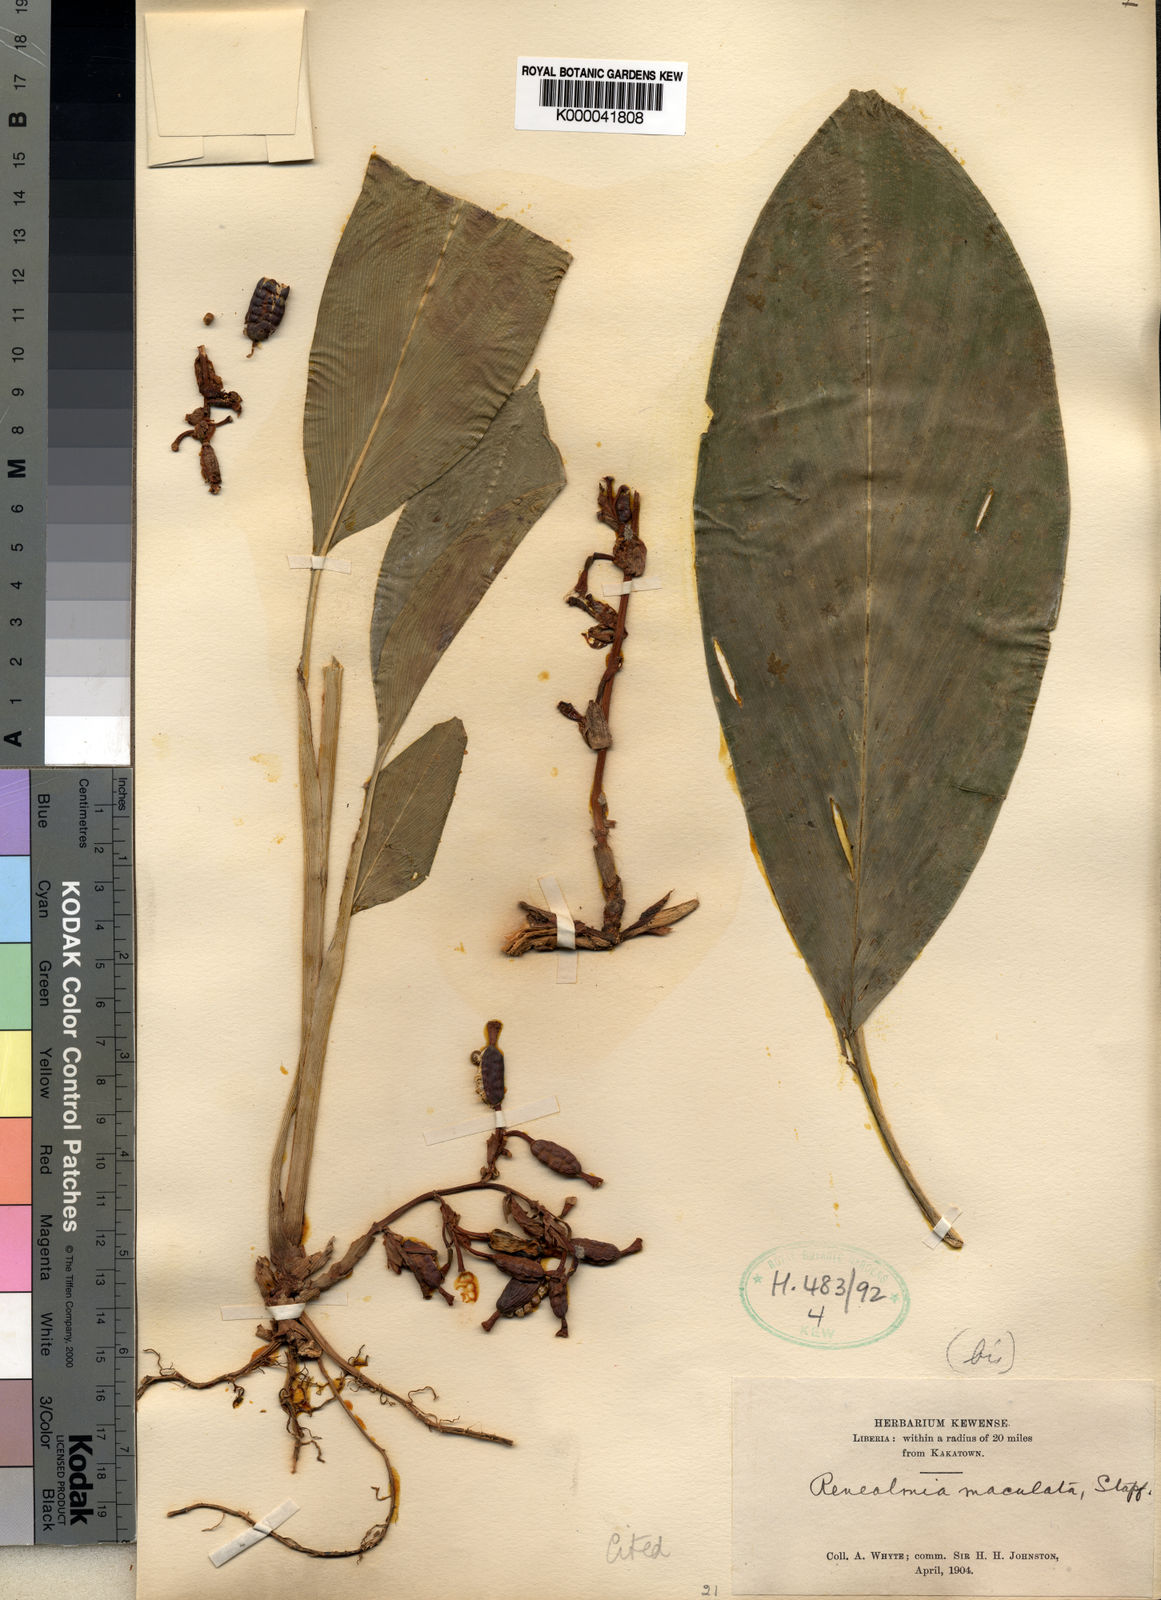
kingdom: Plantae
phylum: Tracheophyta
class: Liliopsida
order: Zingiberales
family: Zingiberaceae
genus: Renealmia
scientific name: Renealmia maculata
